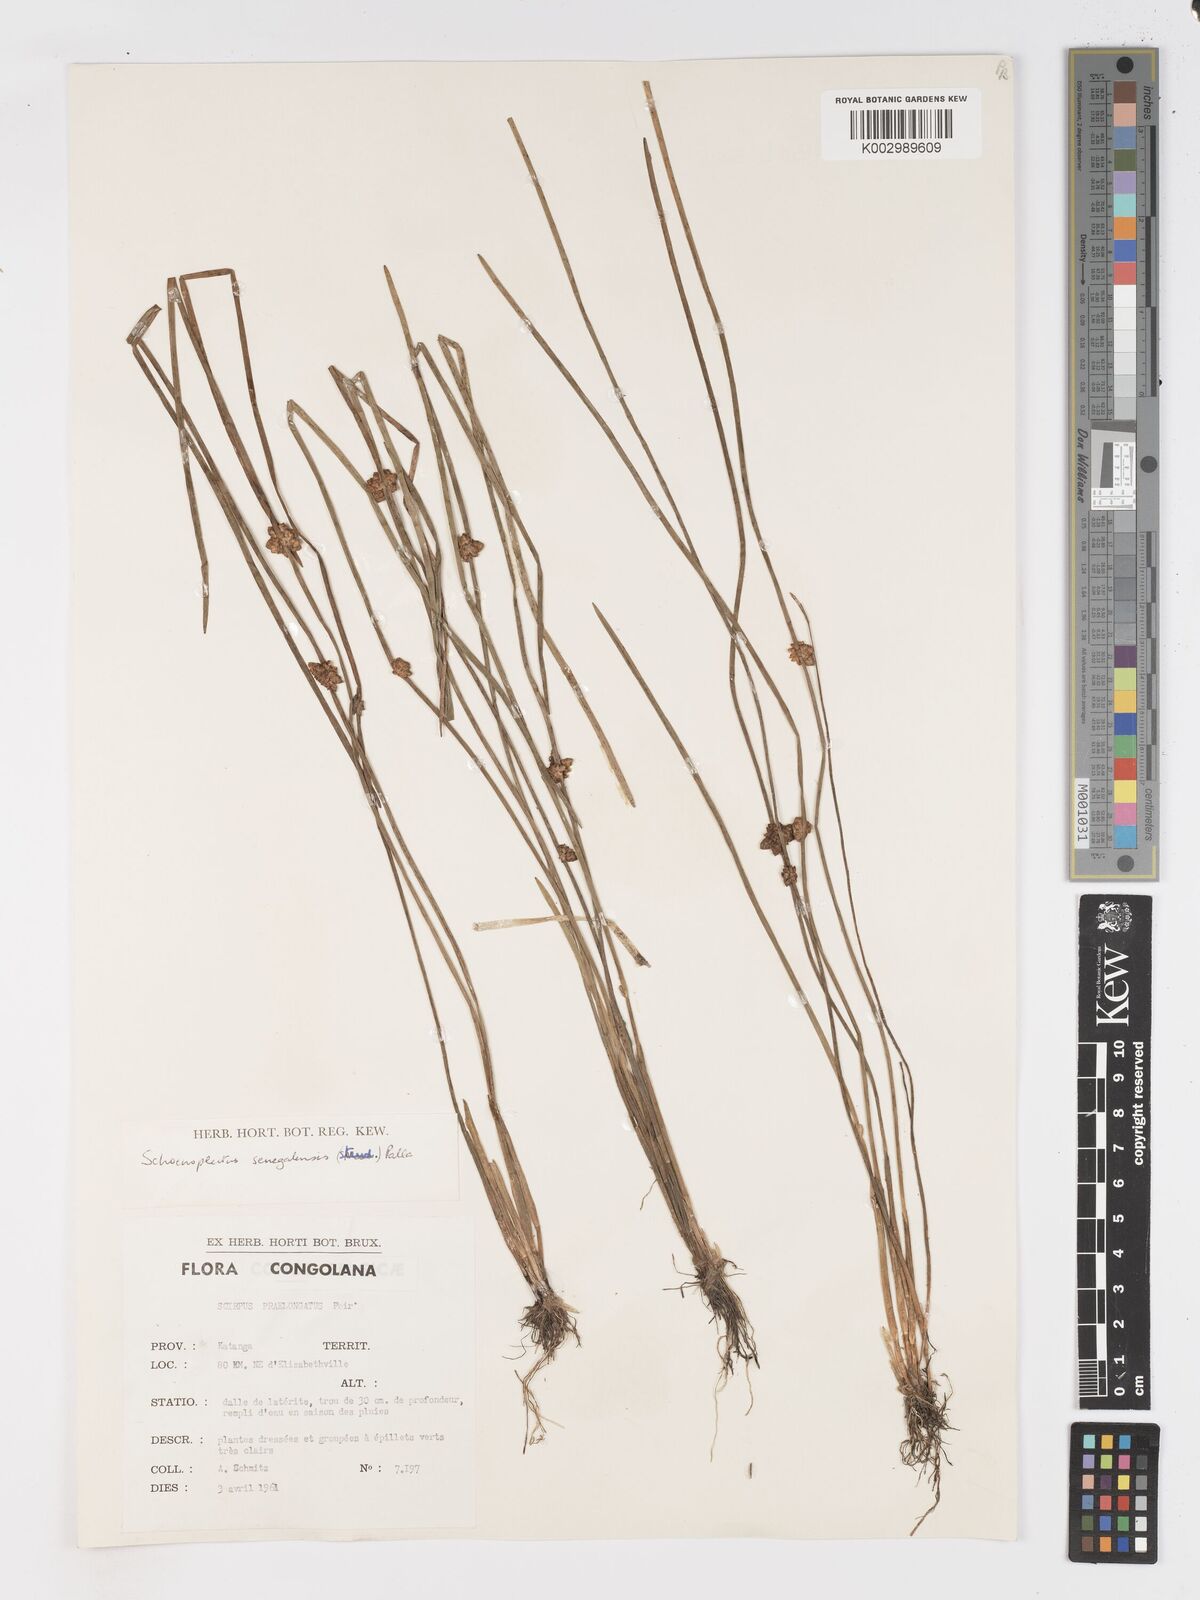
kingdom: Plantae
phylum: Tracheophyta
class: Liliopsida
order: Poales
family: Cyperaceae
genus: Schoenoplectiella
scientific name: Schoenoplectiella senegalensis
